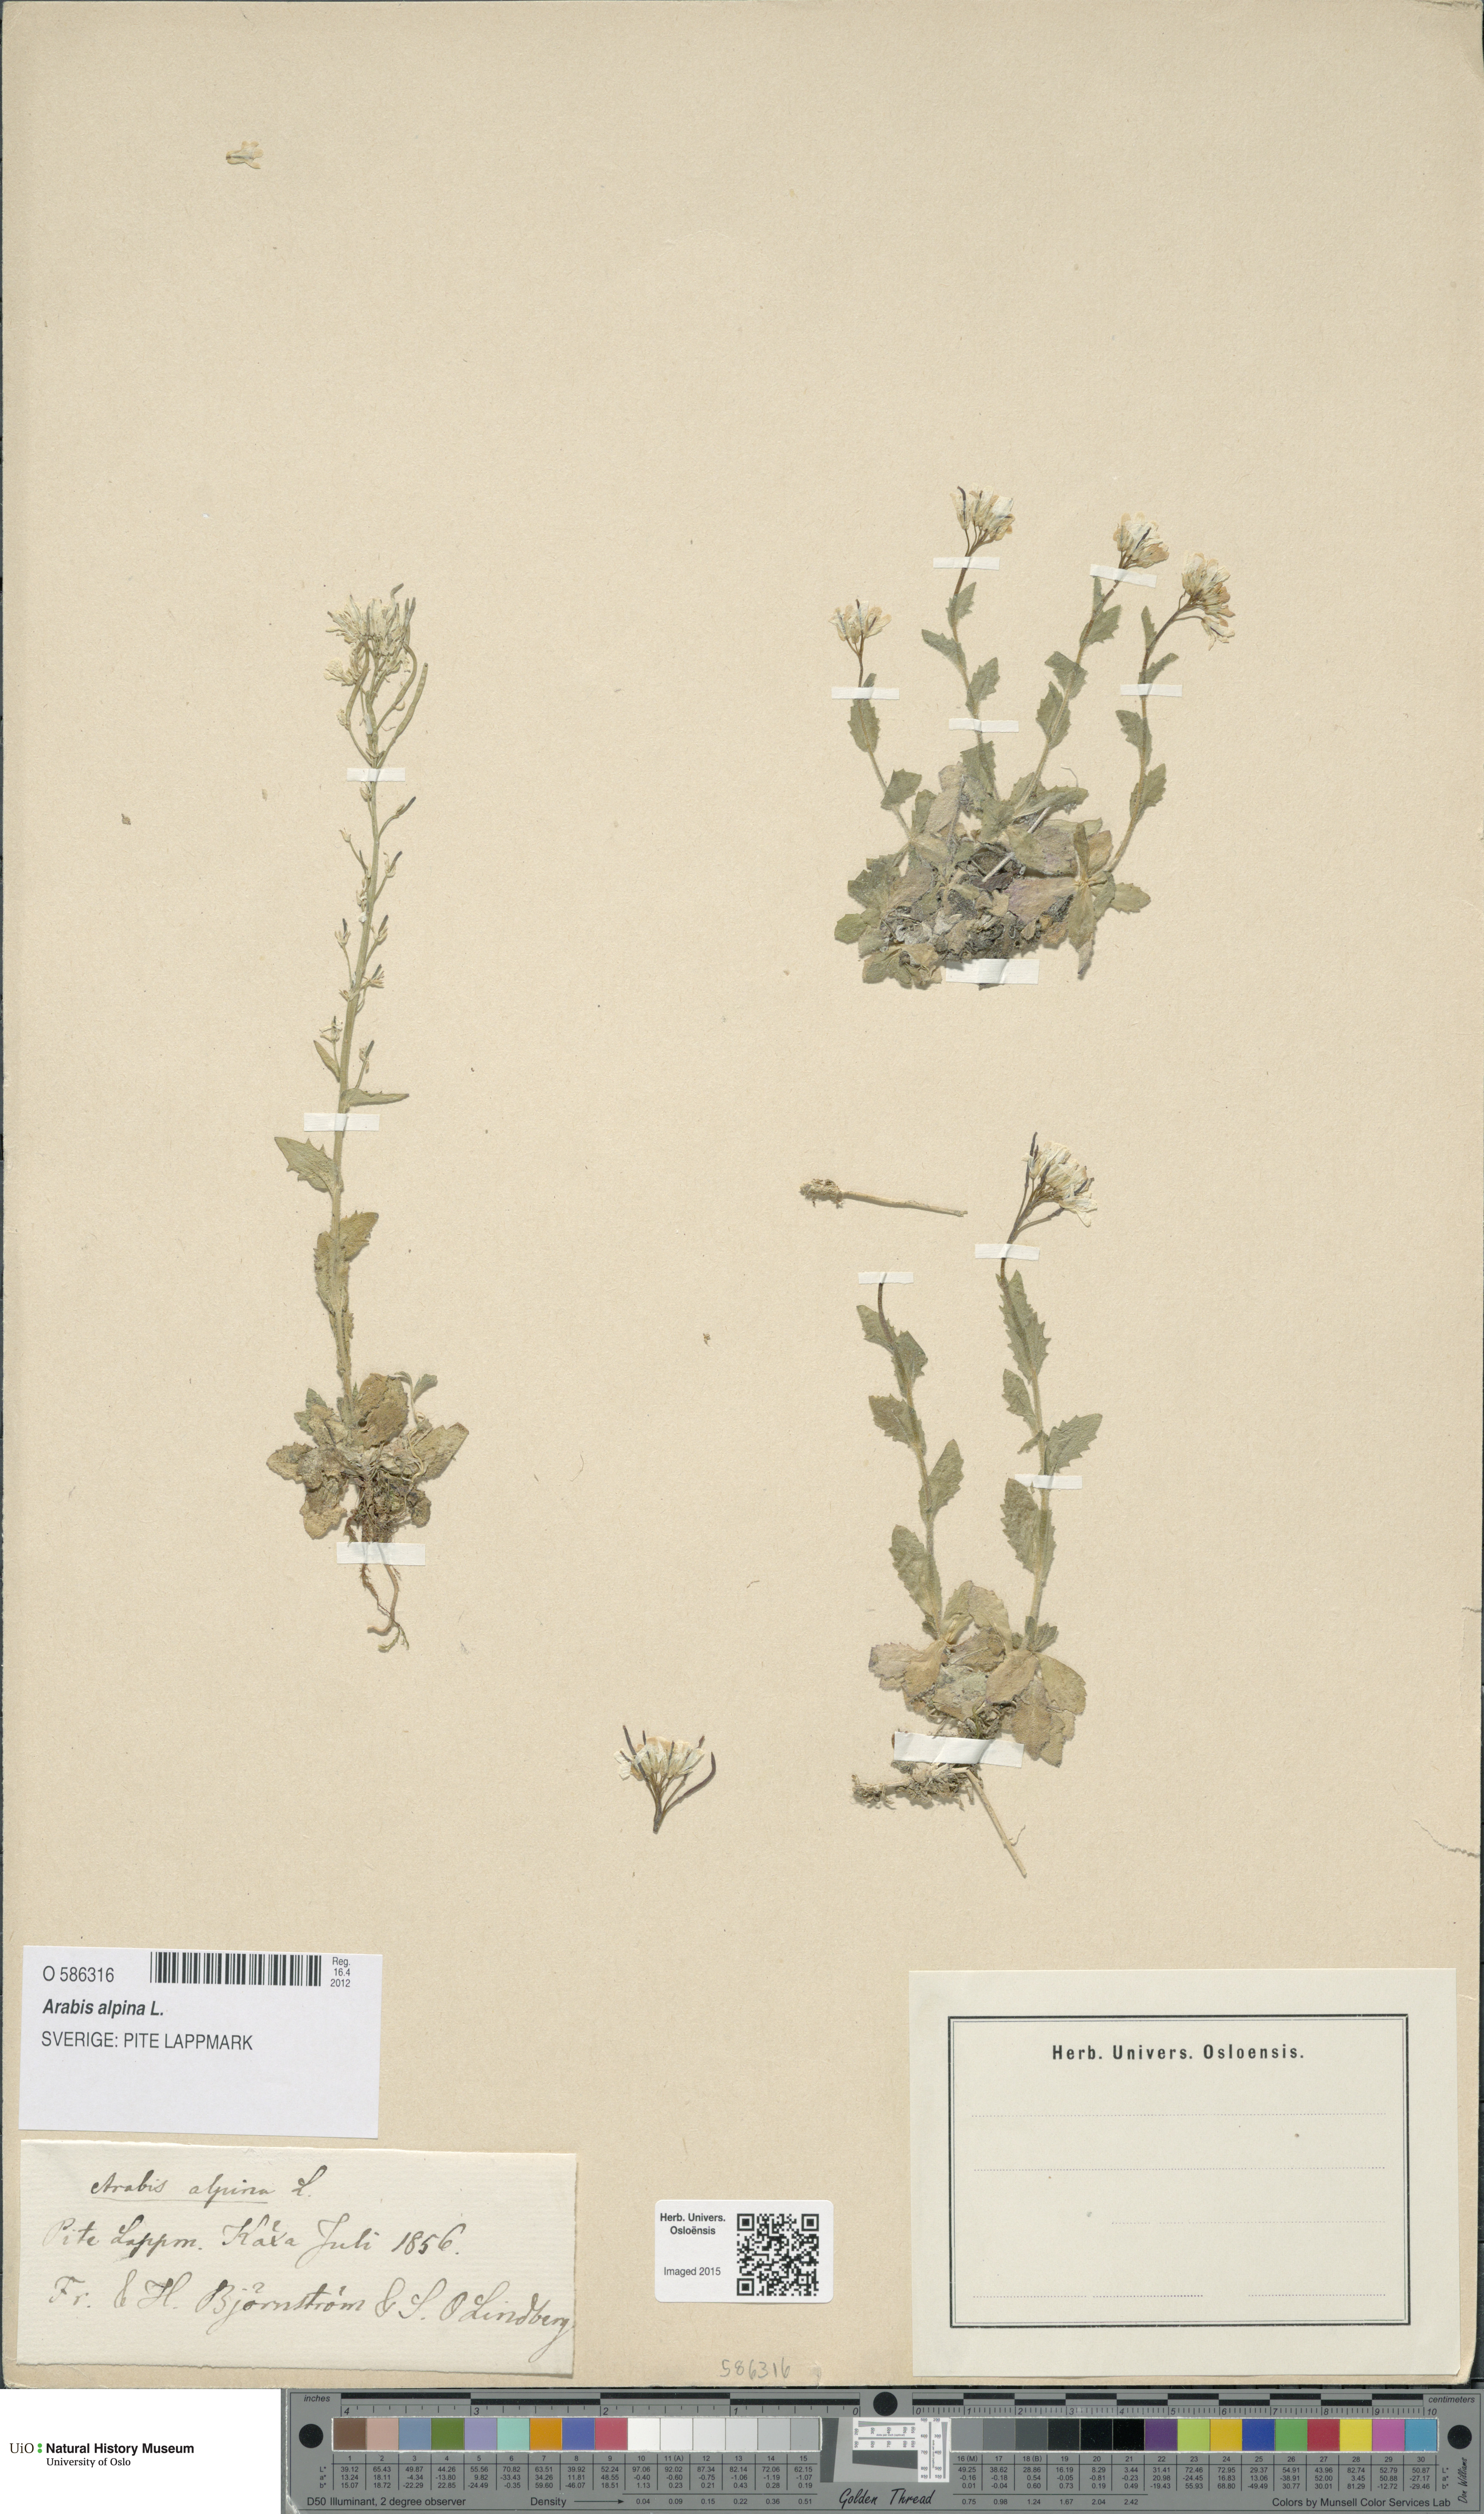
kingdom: Plantae
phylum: Tracheophyta
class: Magnoliopsida
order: Brassicales
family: Brassicaceae
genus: Arabis
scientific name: Arabis alpina
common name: Alpine rock-cress
